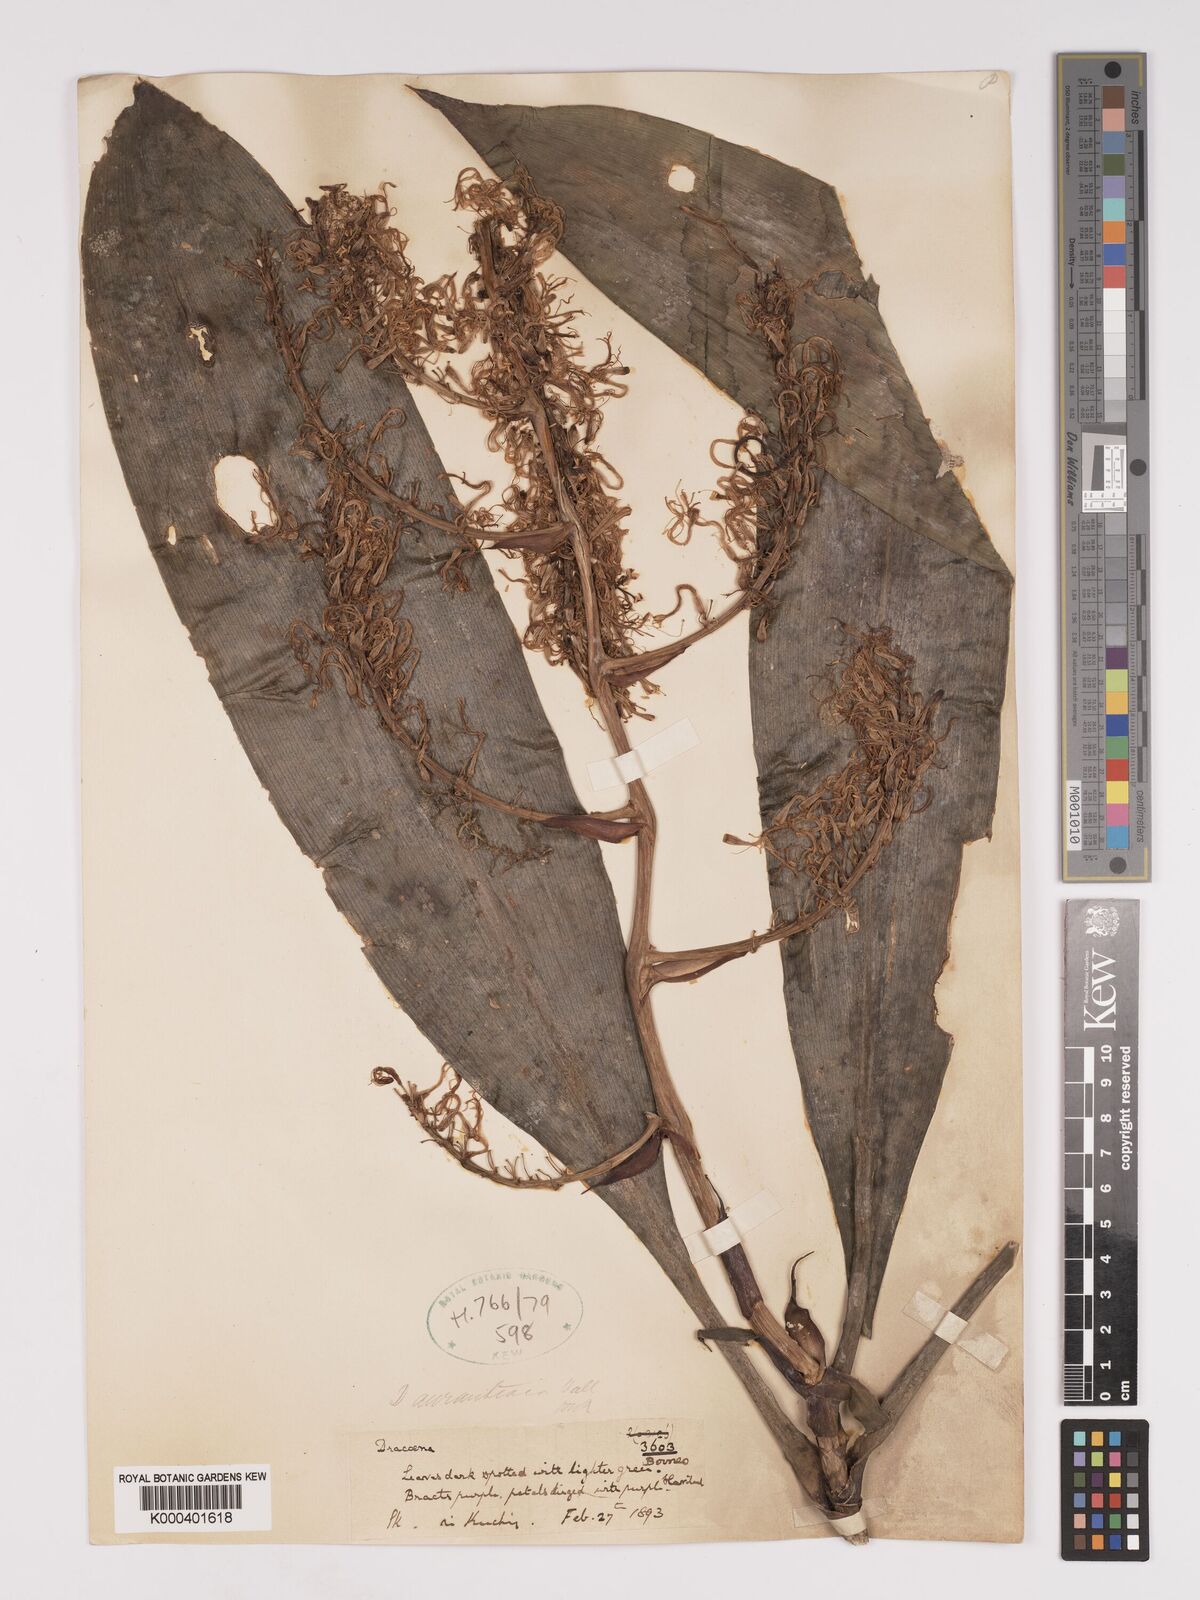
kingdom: Plantae
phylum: Tracheophyta
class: Liliopsida
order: Asparagales
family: Asparagaceae
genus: Dracaena
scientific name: Dracaena
